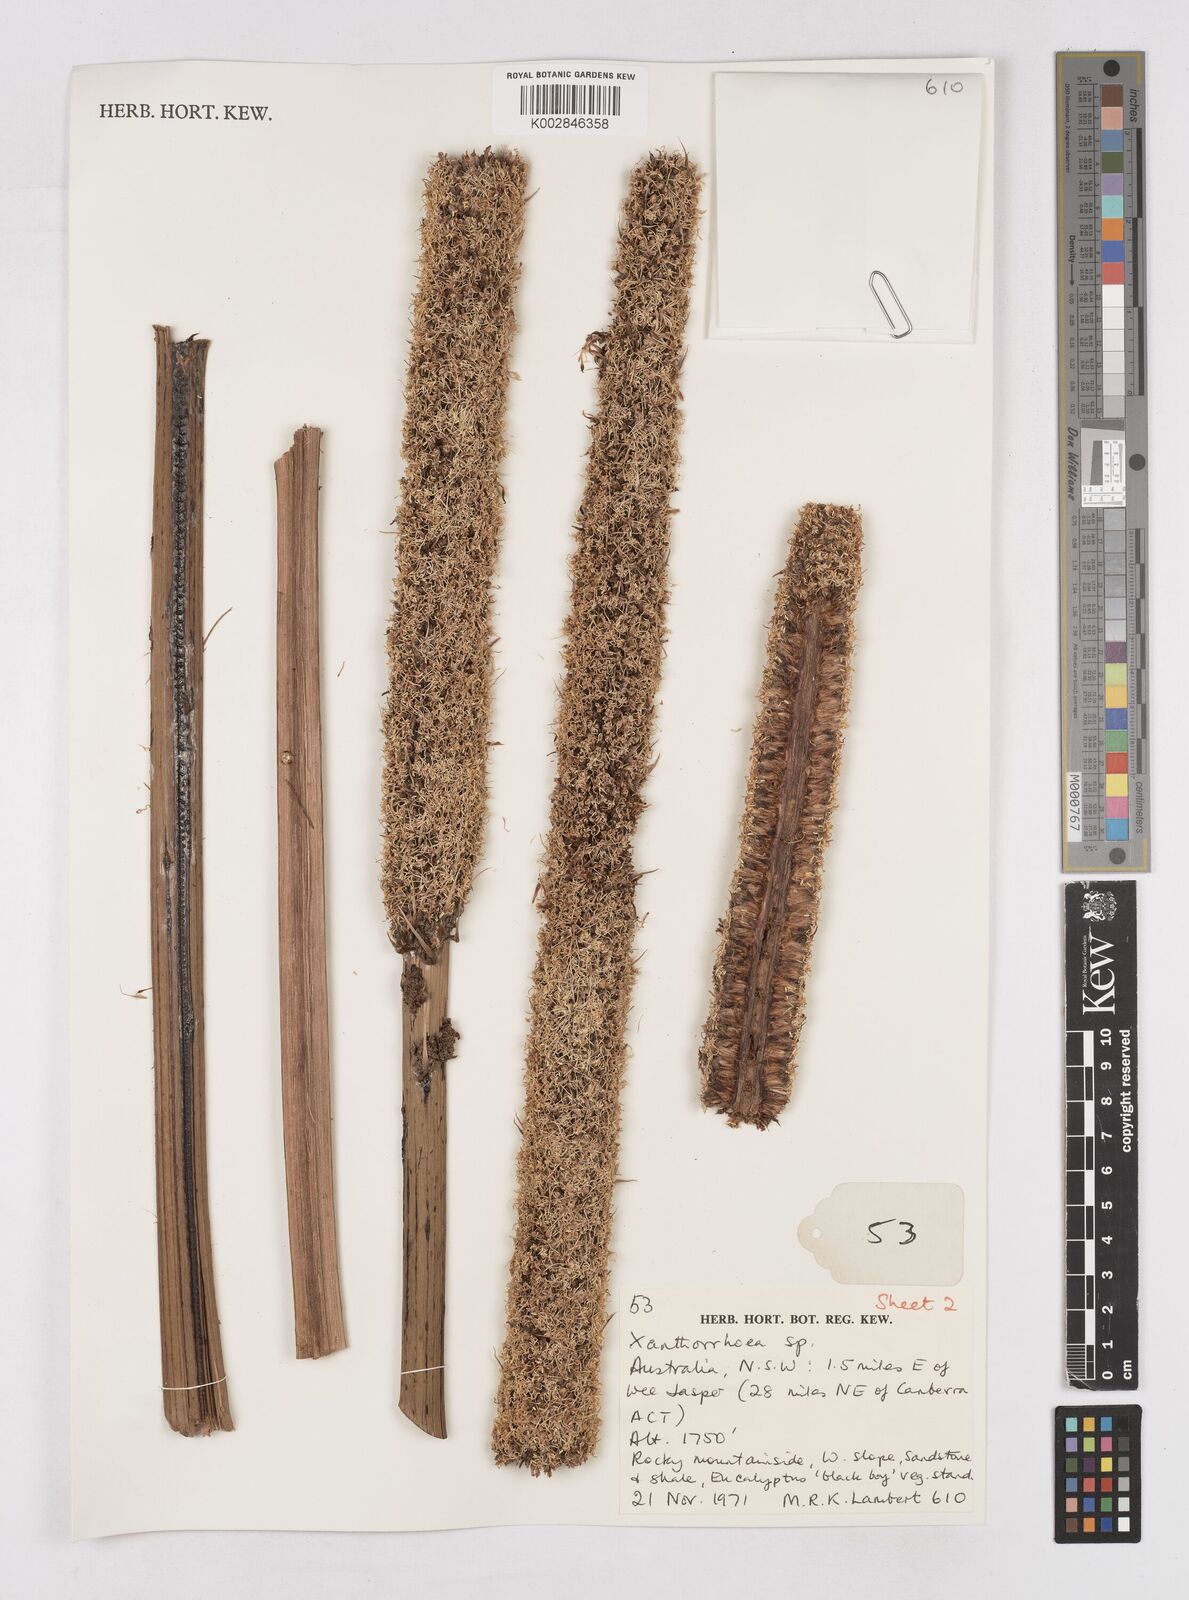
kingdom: Plantae
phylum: Tracheophyta
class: Liliopsida
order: Asparagales
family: Asphodelaceae
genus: Xanthorrhoea
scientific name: Xanthorrhoea
